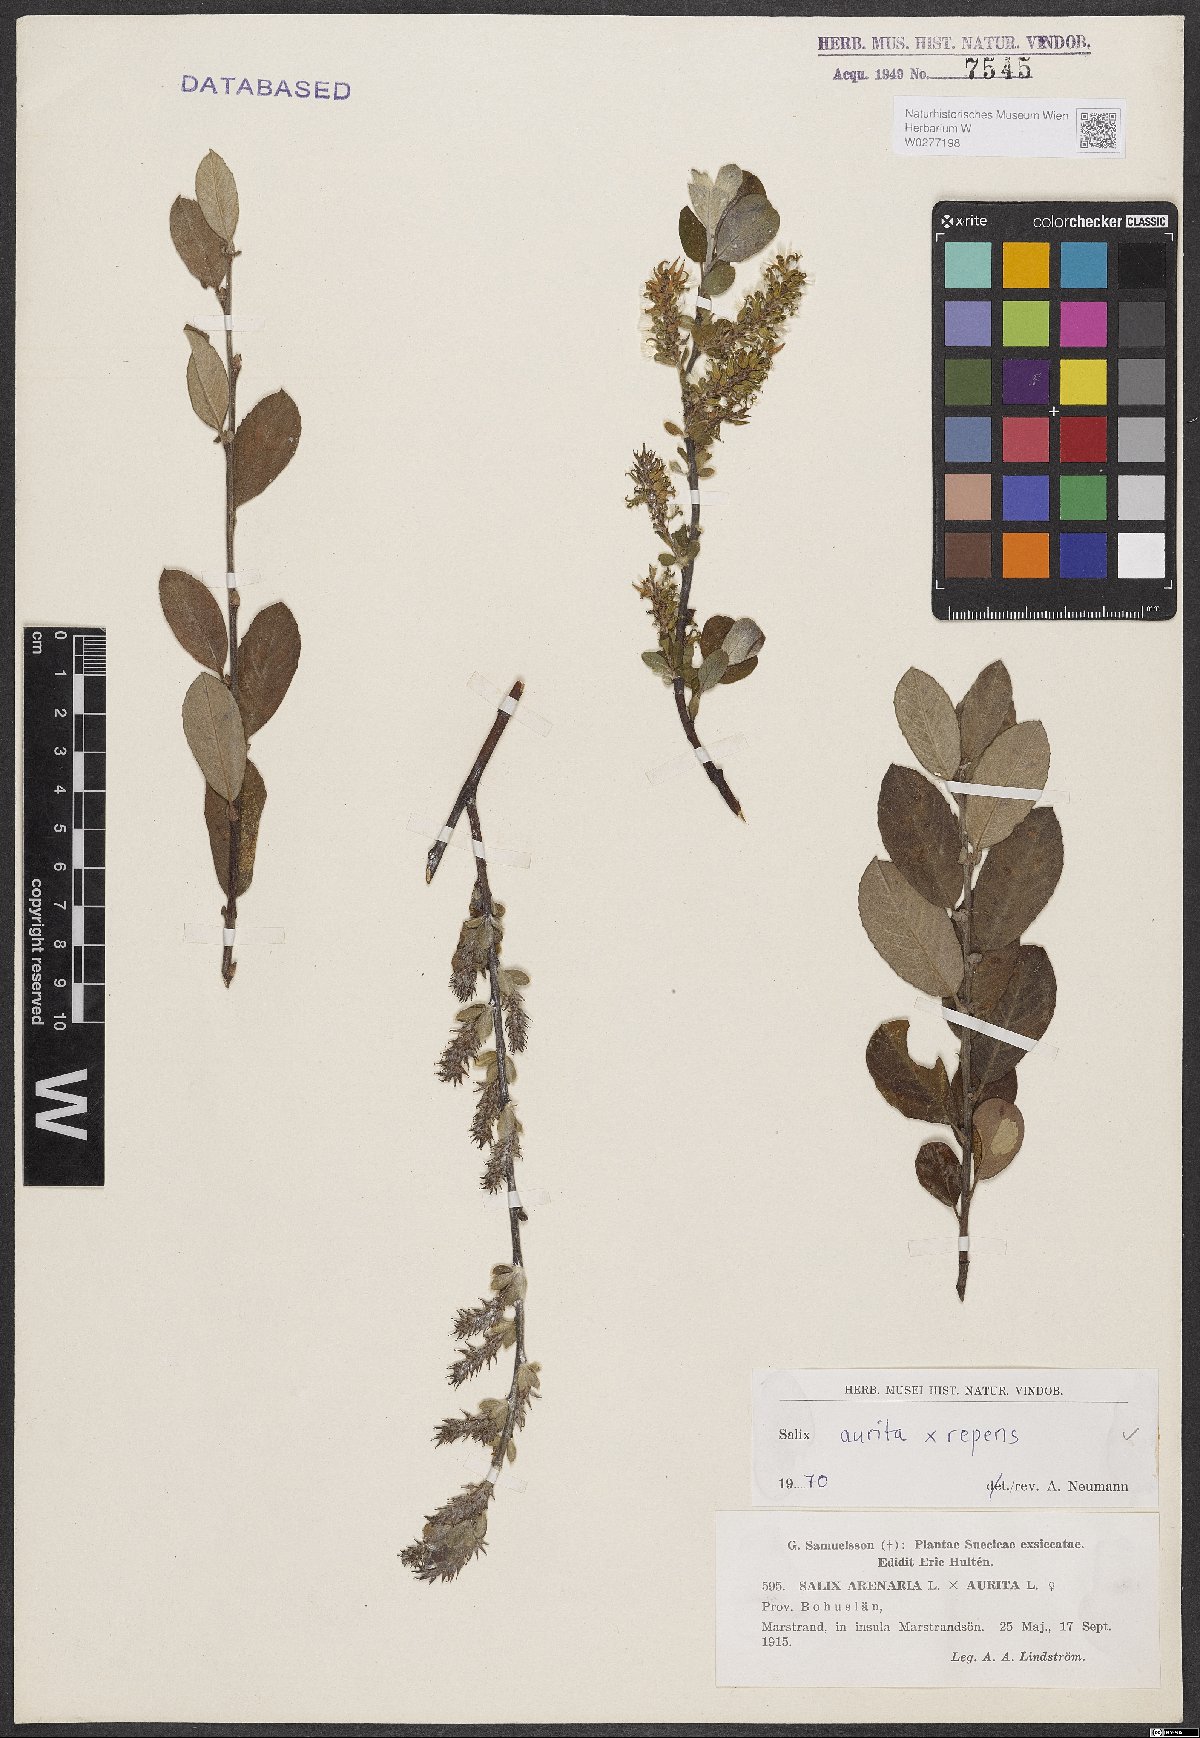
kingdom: Plantae
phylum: Tracheophyta
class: Magnoliopsida
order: Malpighiales
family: Salicaceae
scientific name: Salicaceae
